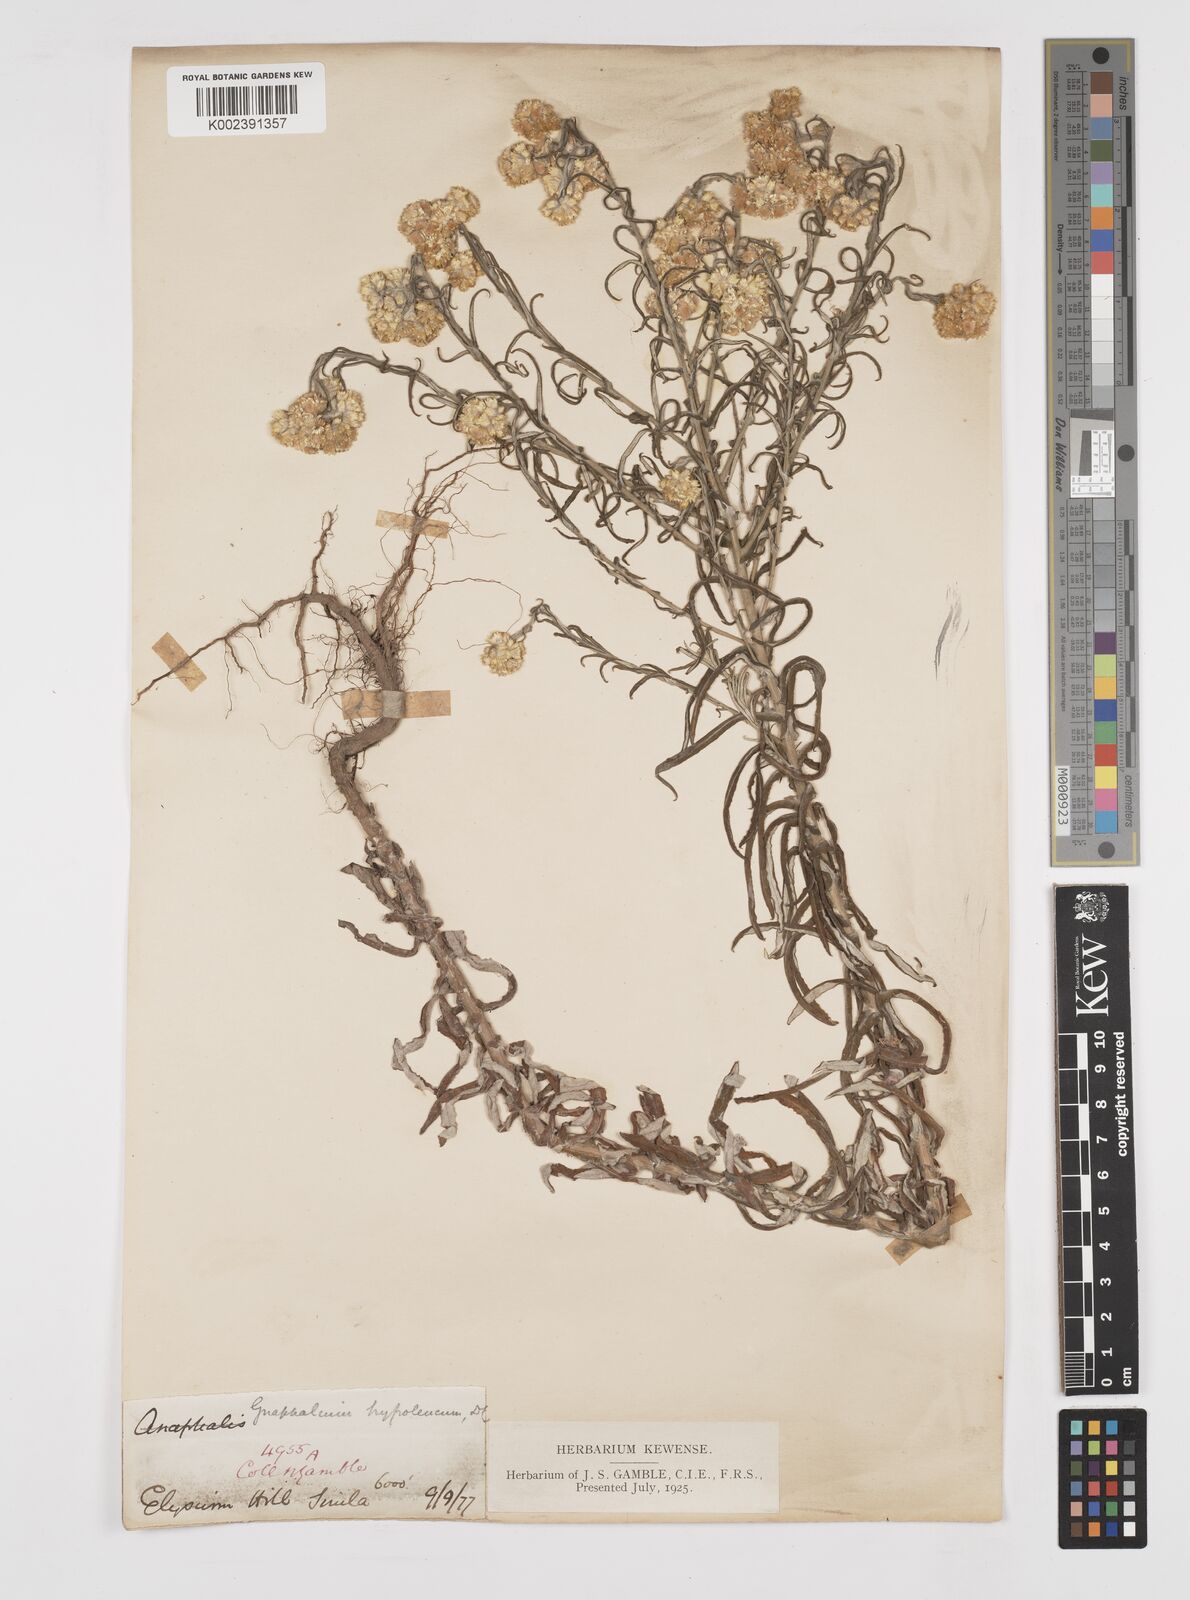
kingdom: Plantae
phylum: Tracheophyta
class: Magnoliopsida
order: Asterales
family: Asteraceae
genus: Pseudognaphalium
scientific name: Pseudognaphalium hypoleucum
